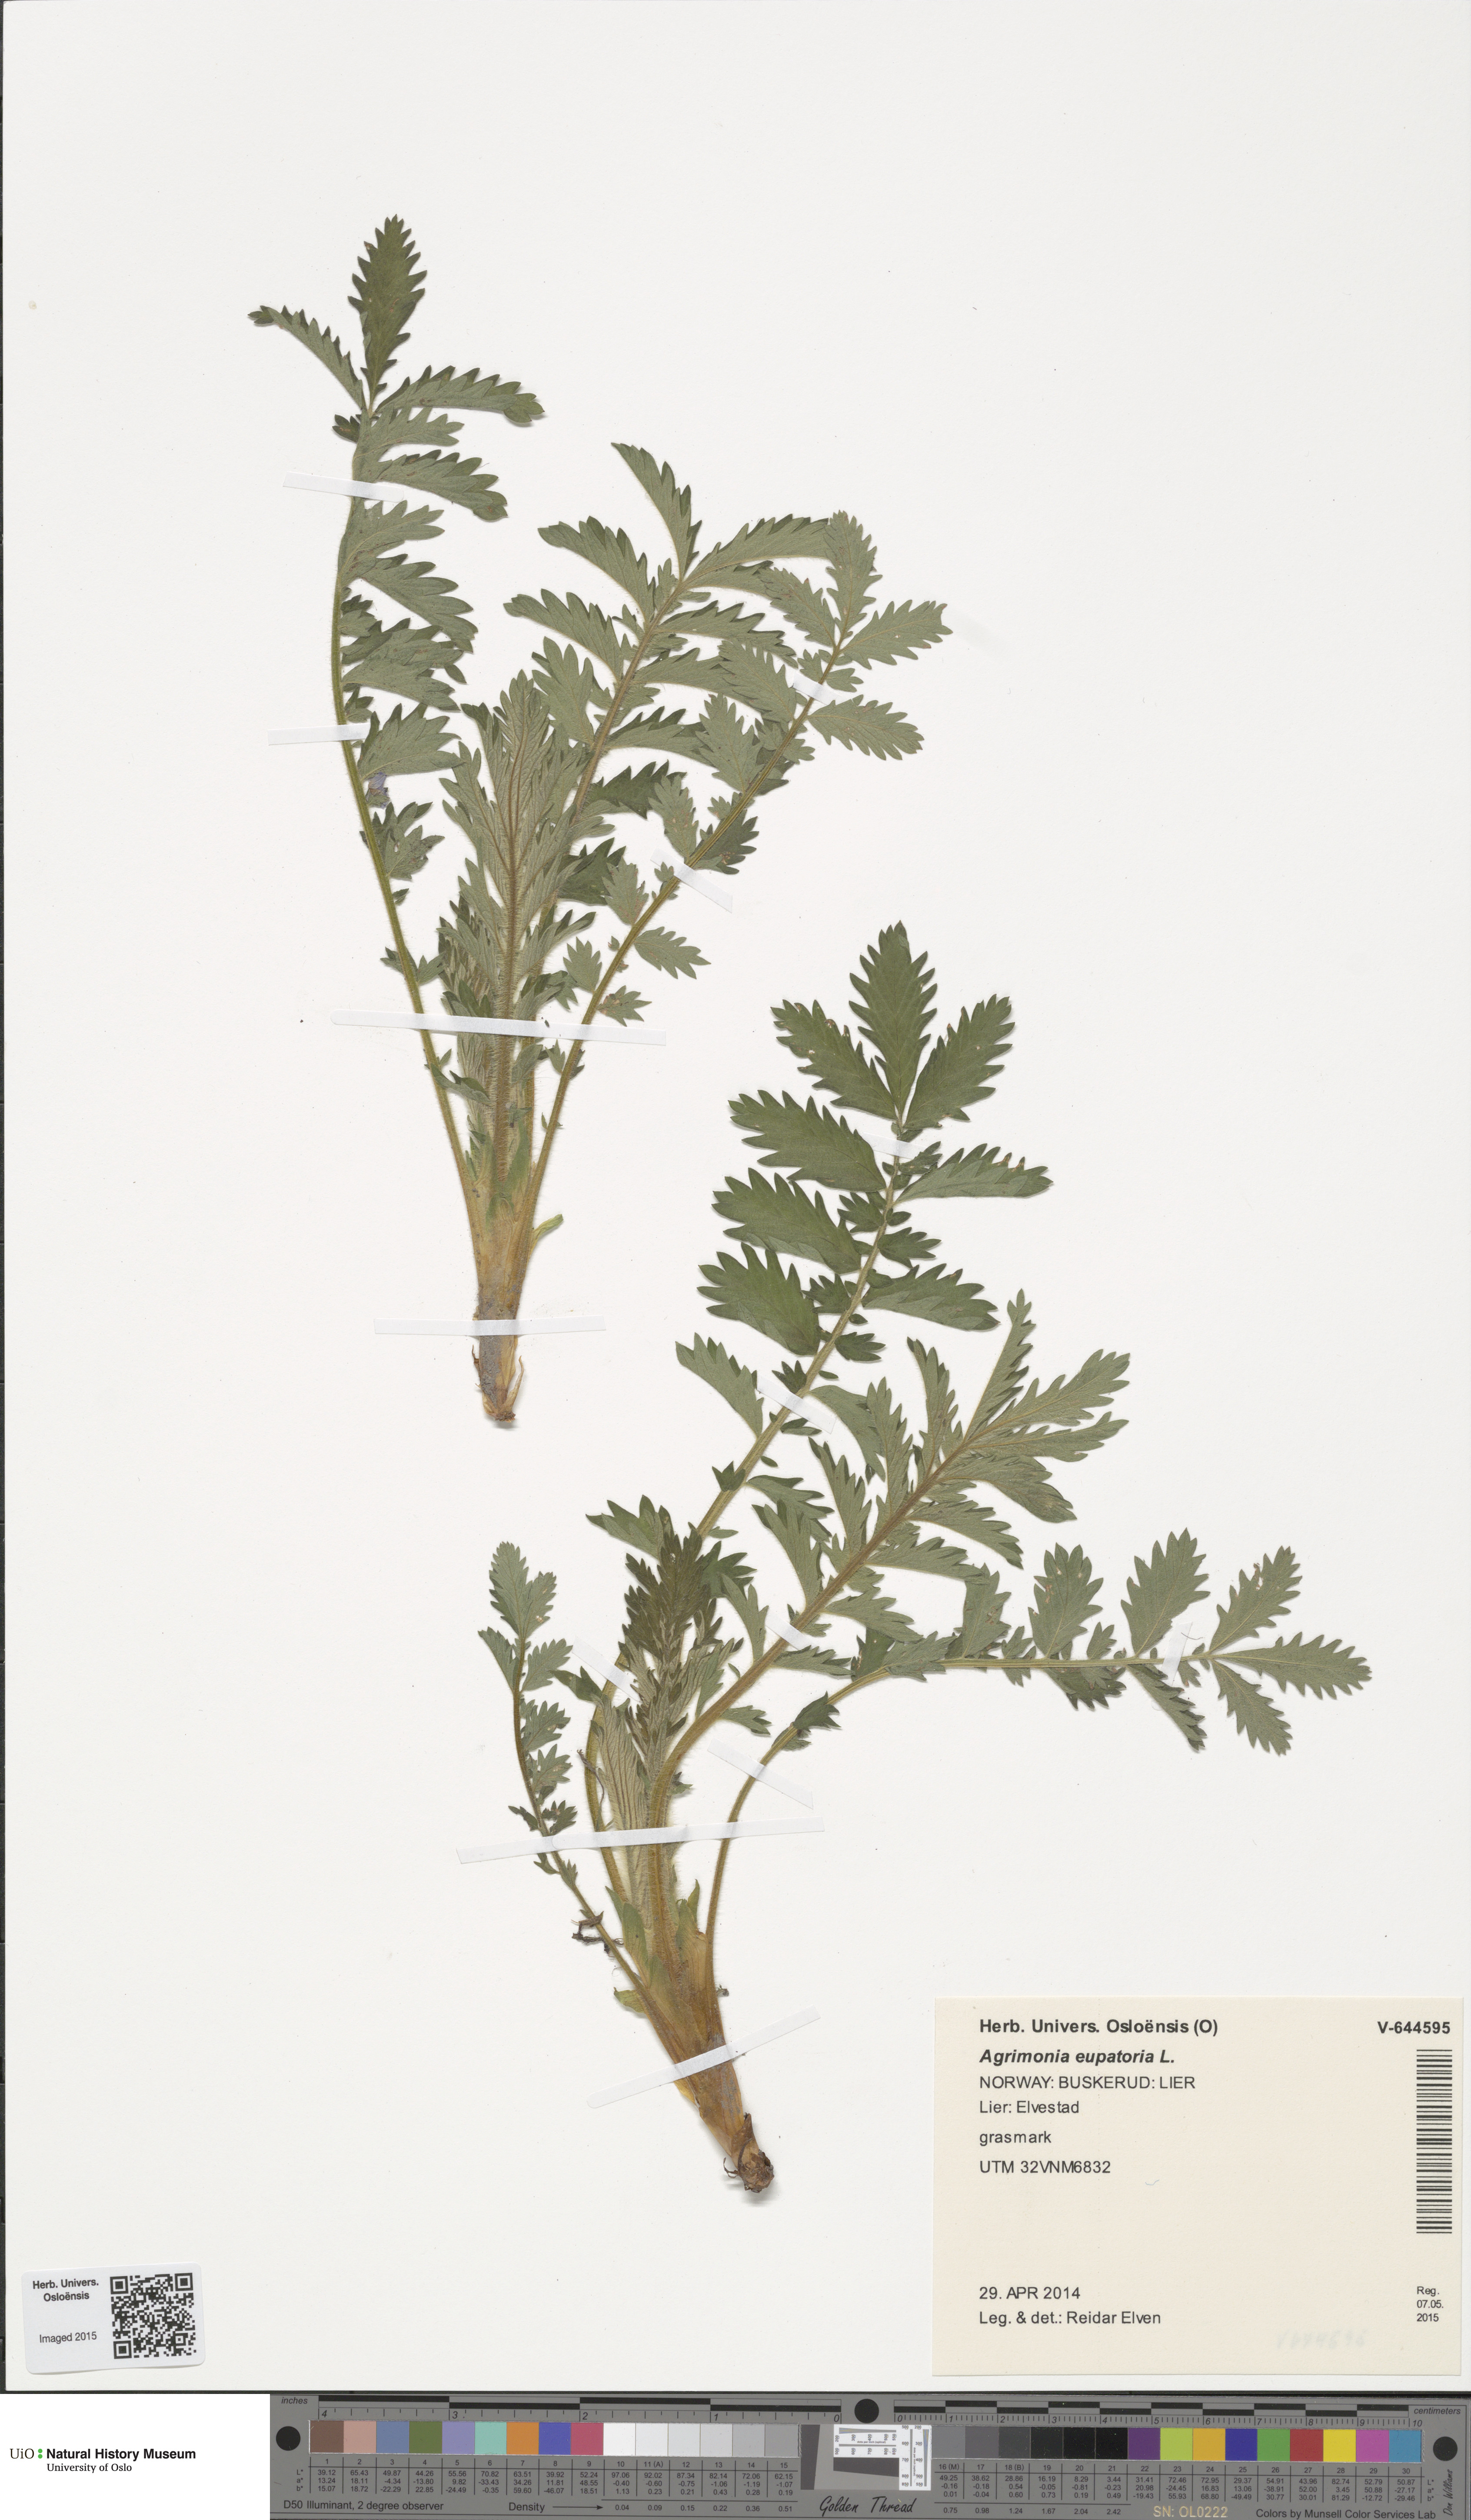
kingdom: Plantae
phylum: Tracheophyta
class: Magnoliopsida
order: Rosales
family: Rosaceae
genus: Agrimonia
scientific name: Agrimonia eupatoria
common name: Agrimony
